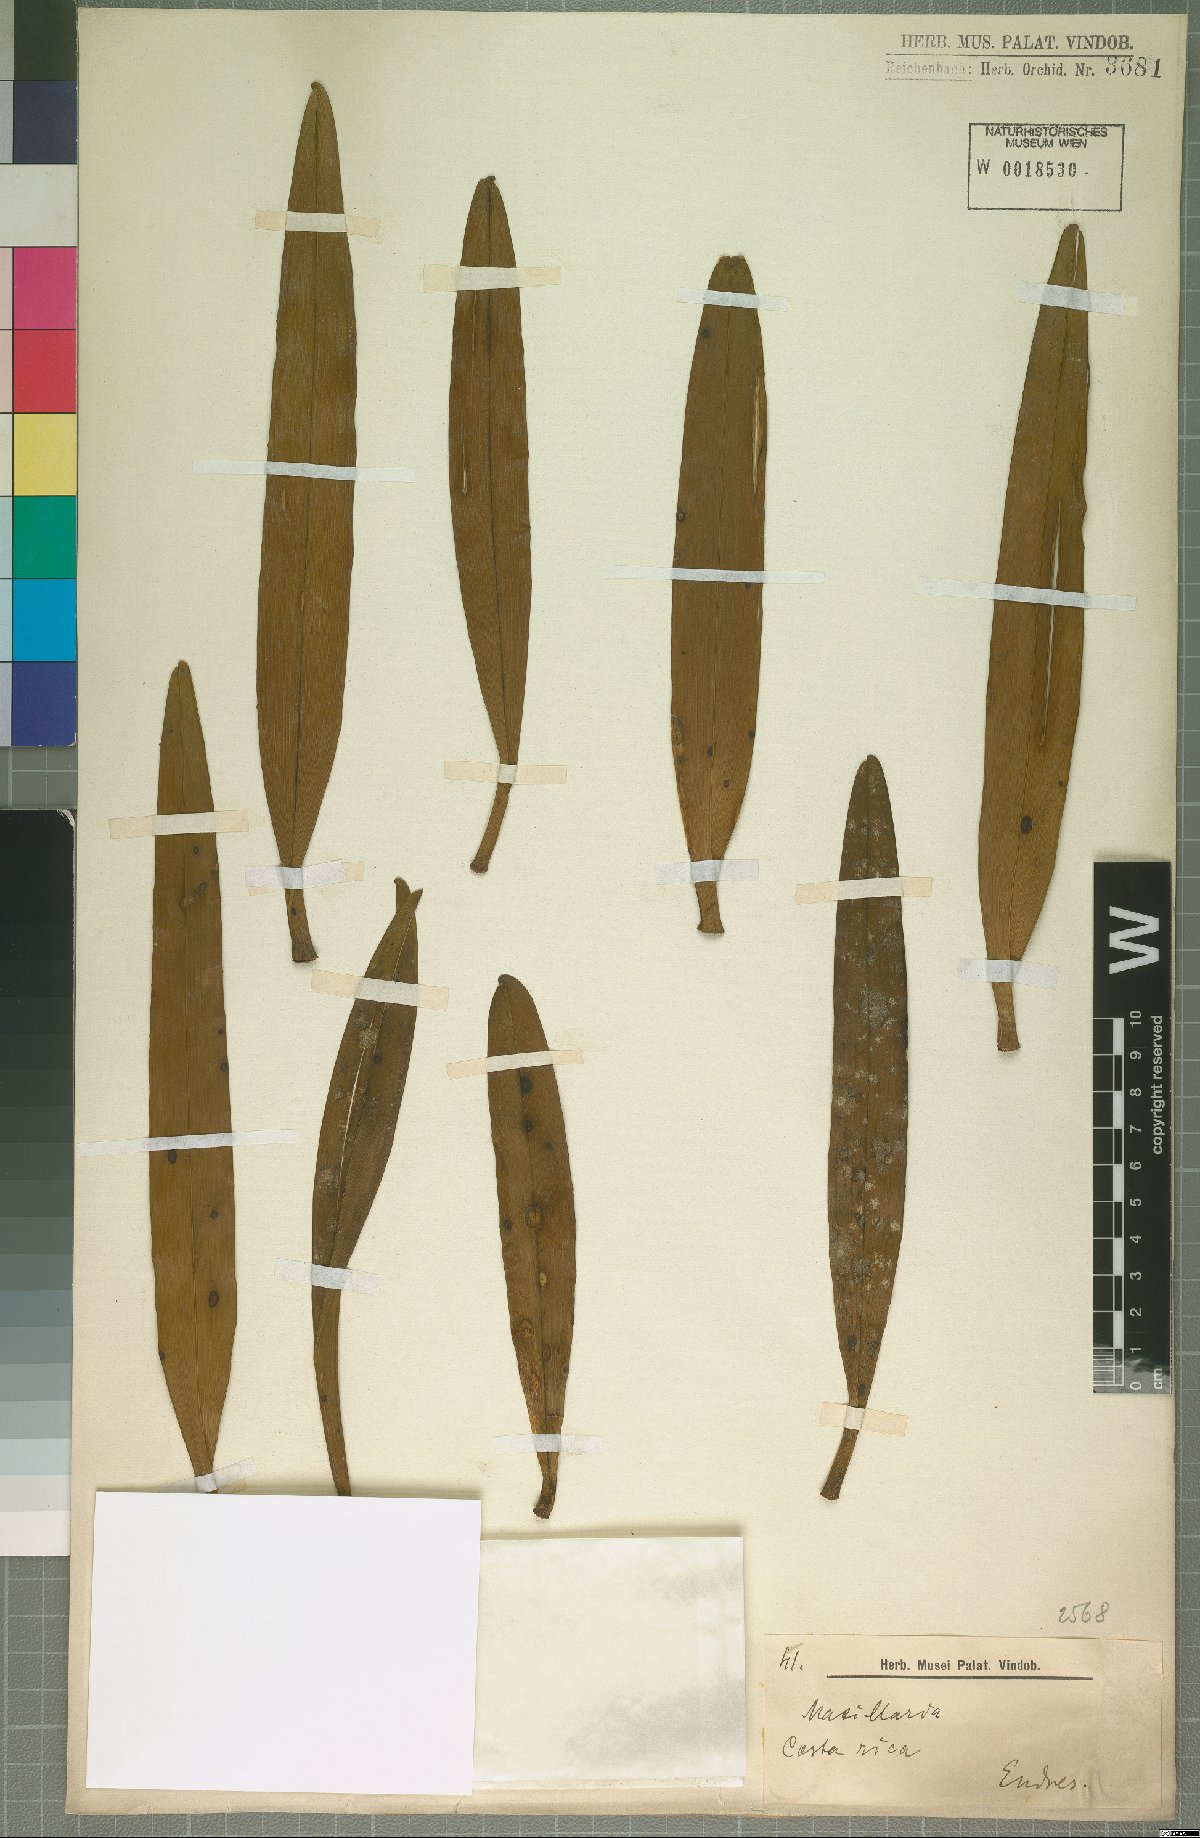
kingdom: Plantae
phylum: Tracheophyta
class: Liliopsida
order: Asparagales
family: Orchidaceae
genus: Maxillaria
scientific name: Maxillaria
